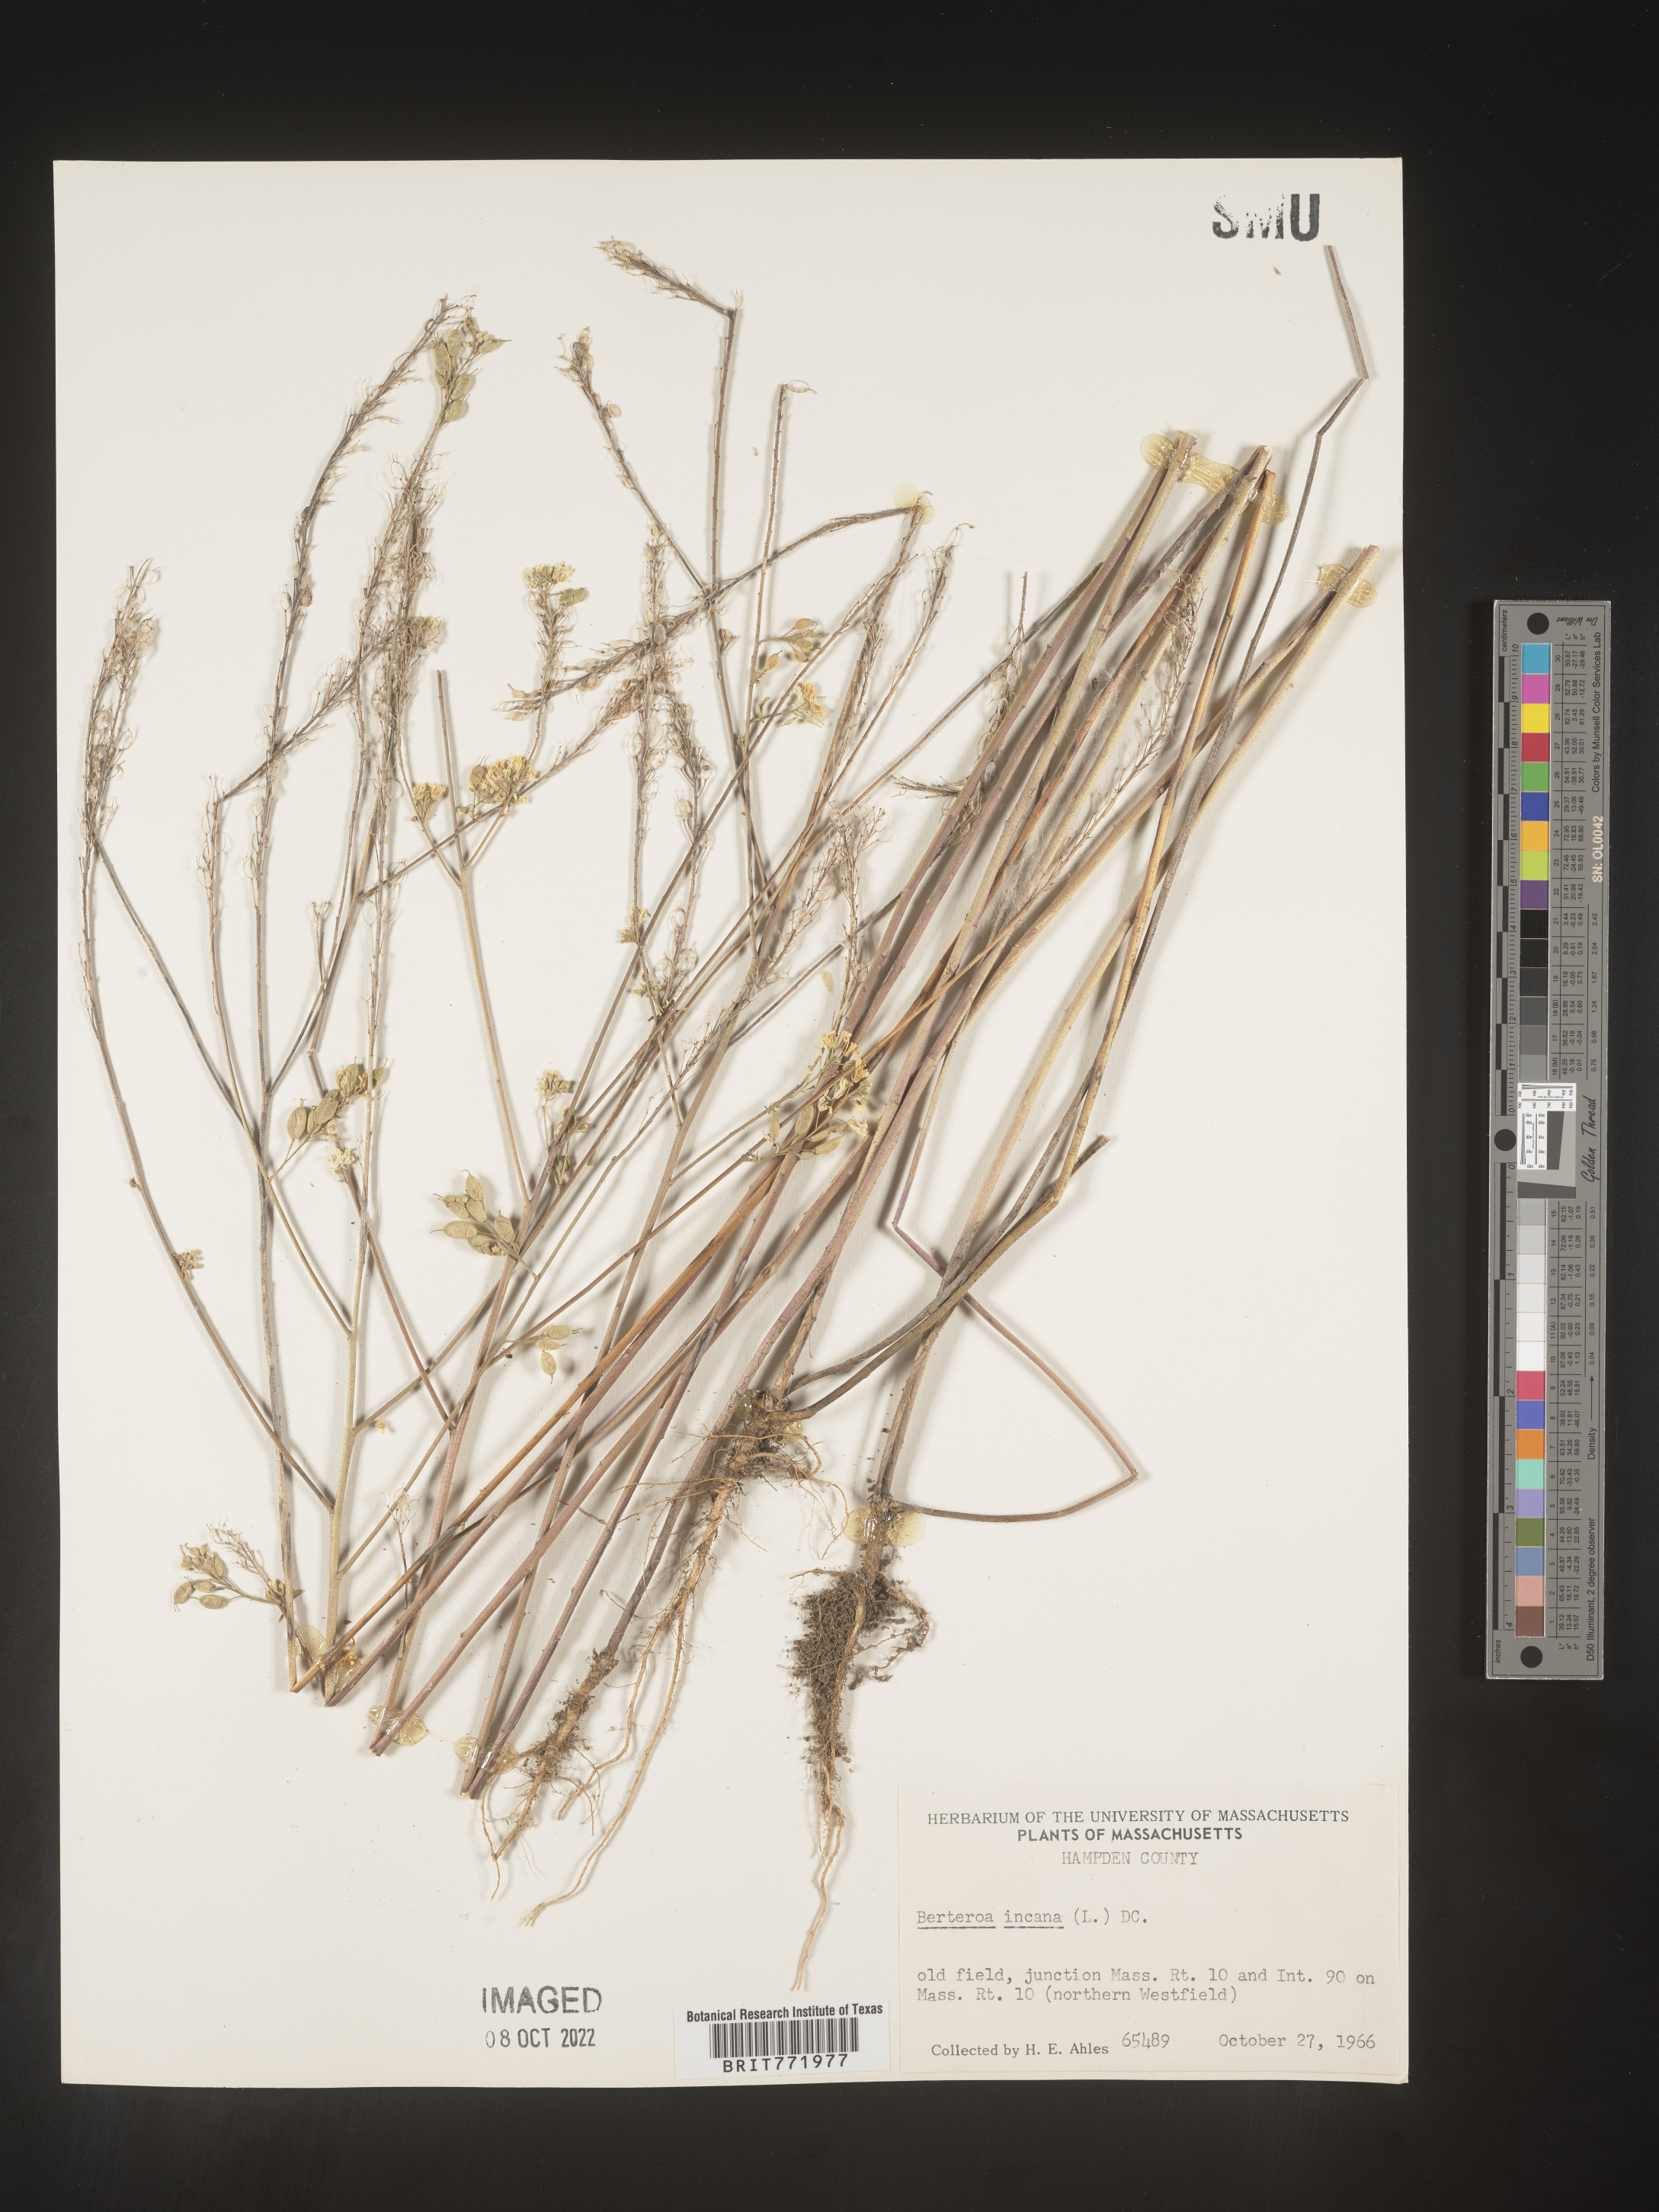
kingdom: Plantae
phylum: Tracheophyta
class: Magnoliopsida
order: Brassicales
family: Brassicaceae
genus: Berteroa
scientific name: Berteroa incana
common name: Hoary alison
